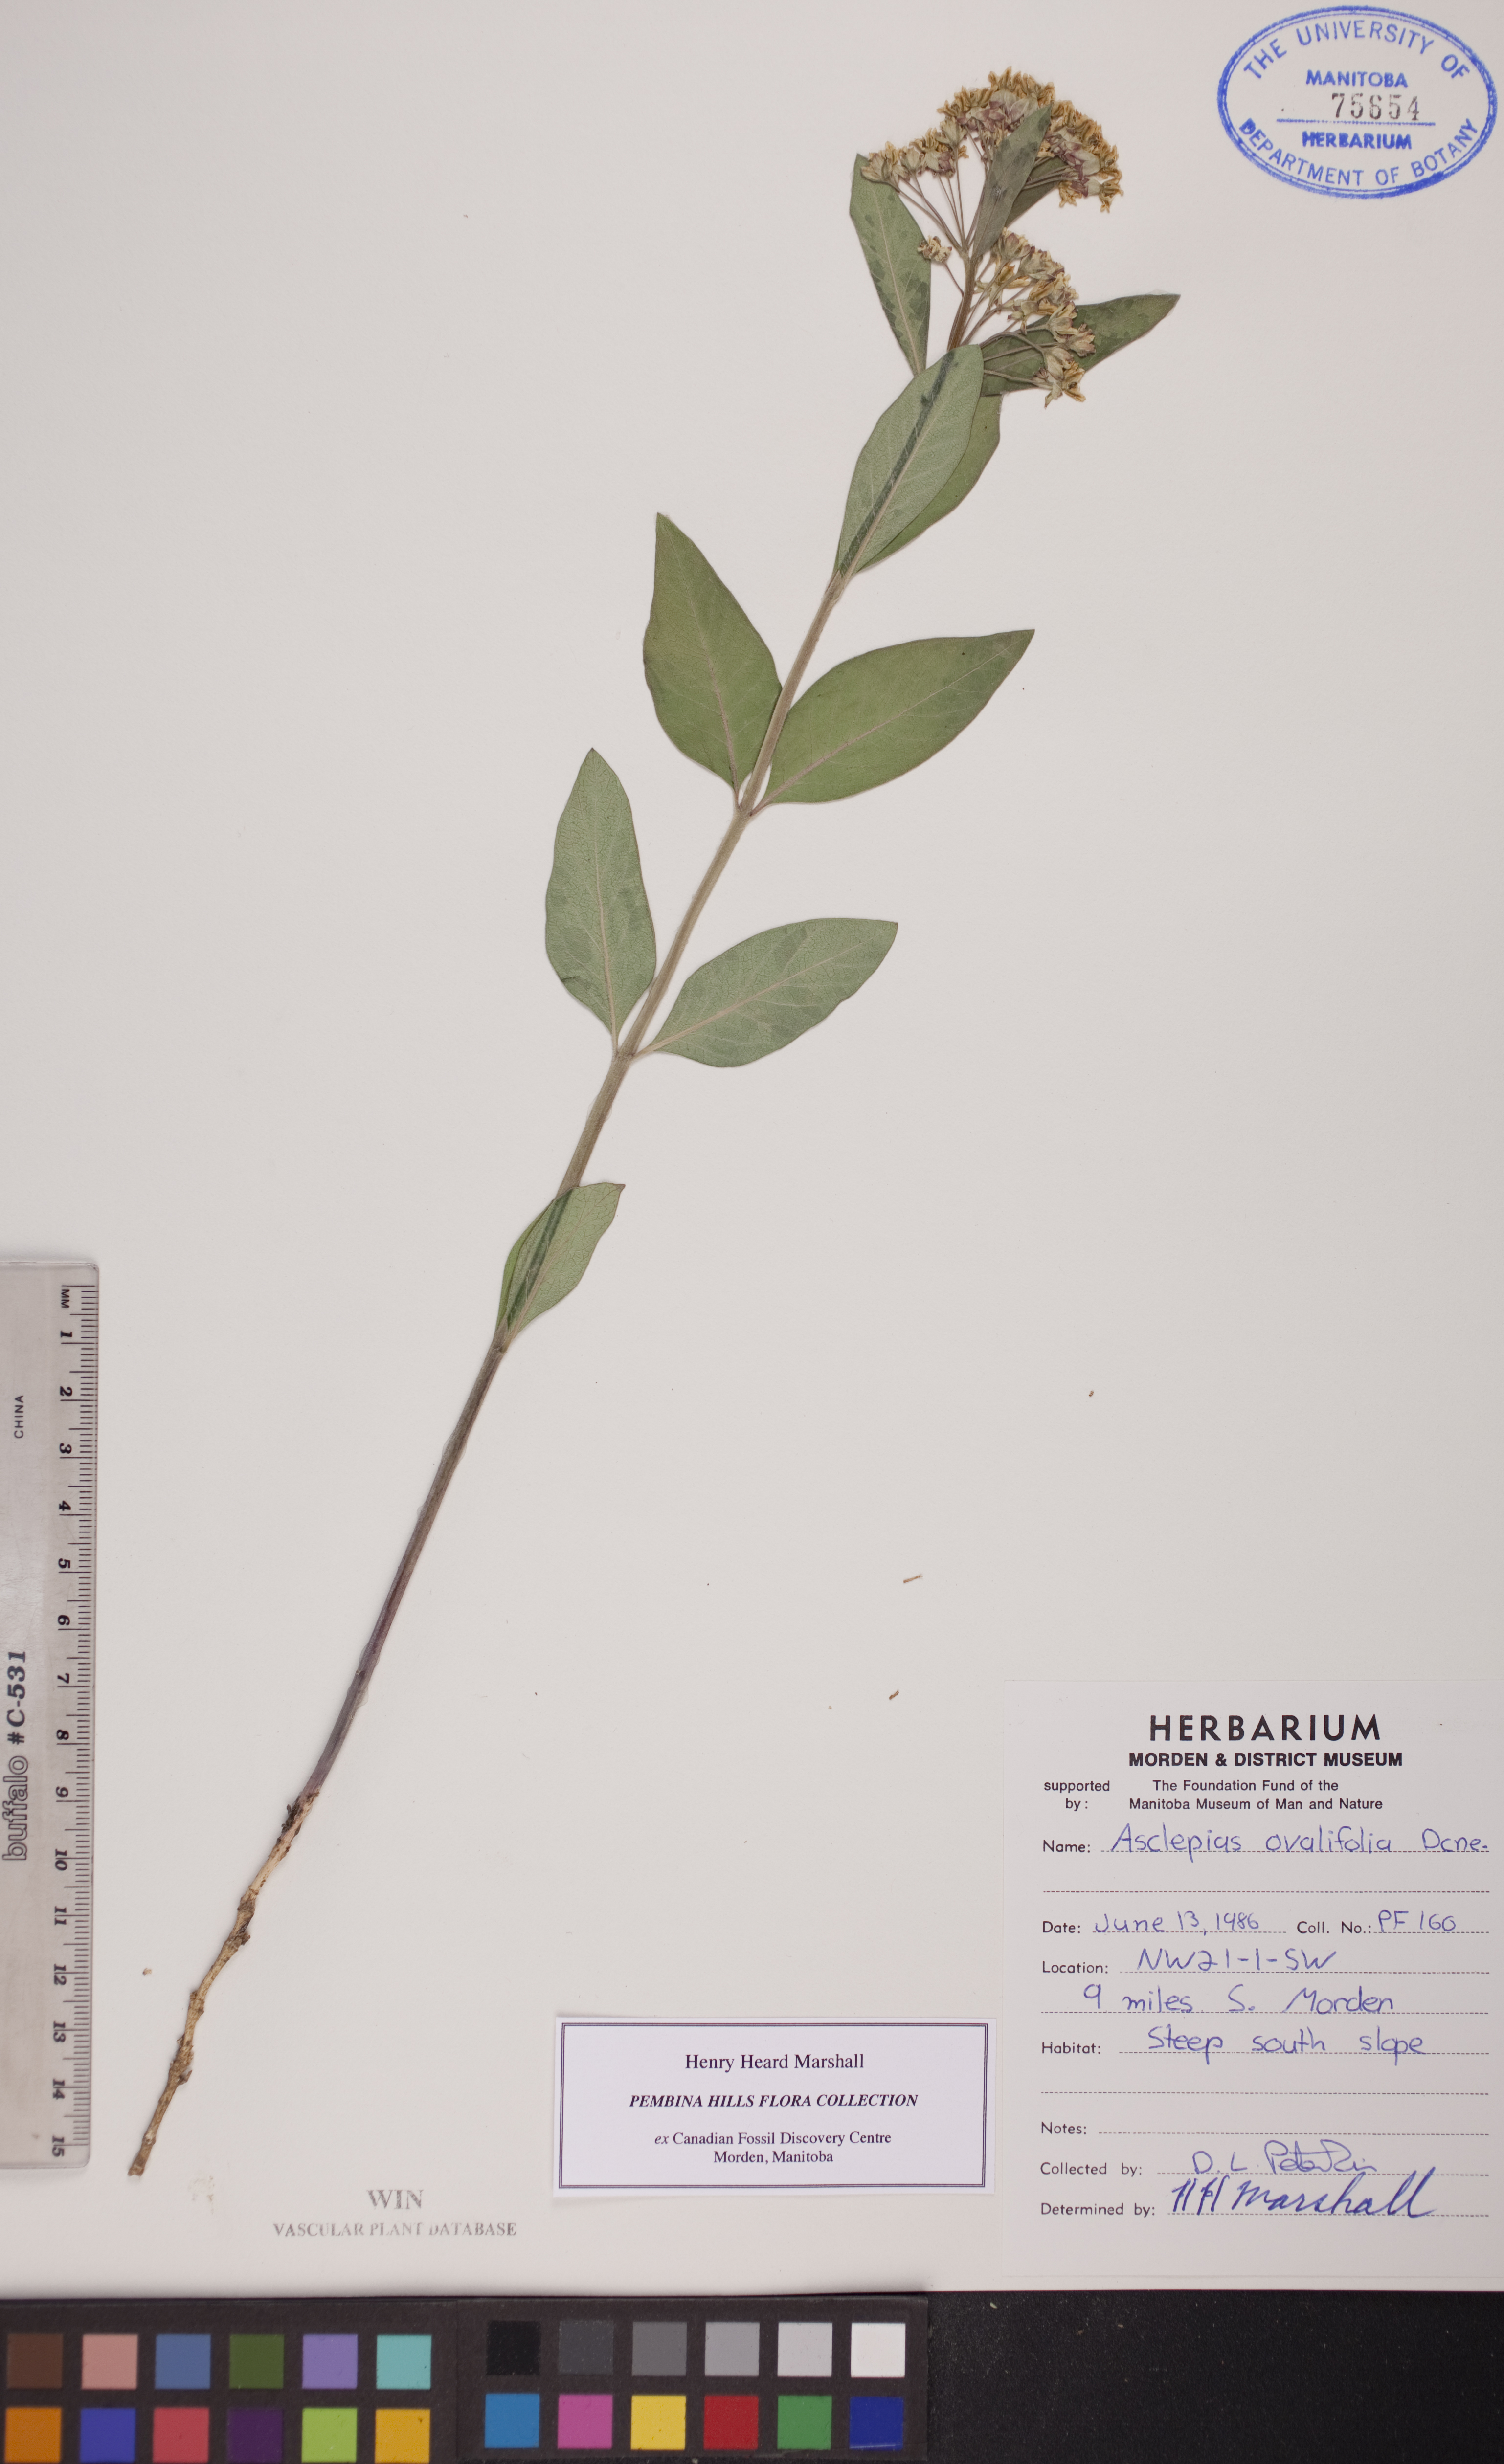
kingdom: Plantae
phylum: Tracheophyta
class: Magnoliopsida
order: Gentianales
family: Apocynaceae
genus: Asclepias
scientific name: Asclepias ovalifolia
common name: Dwarf milkweed
